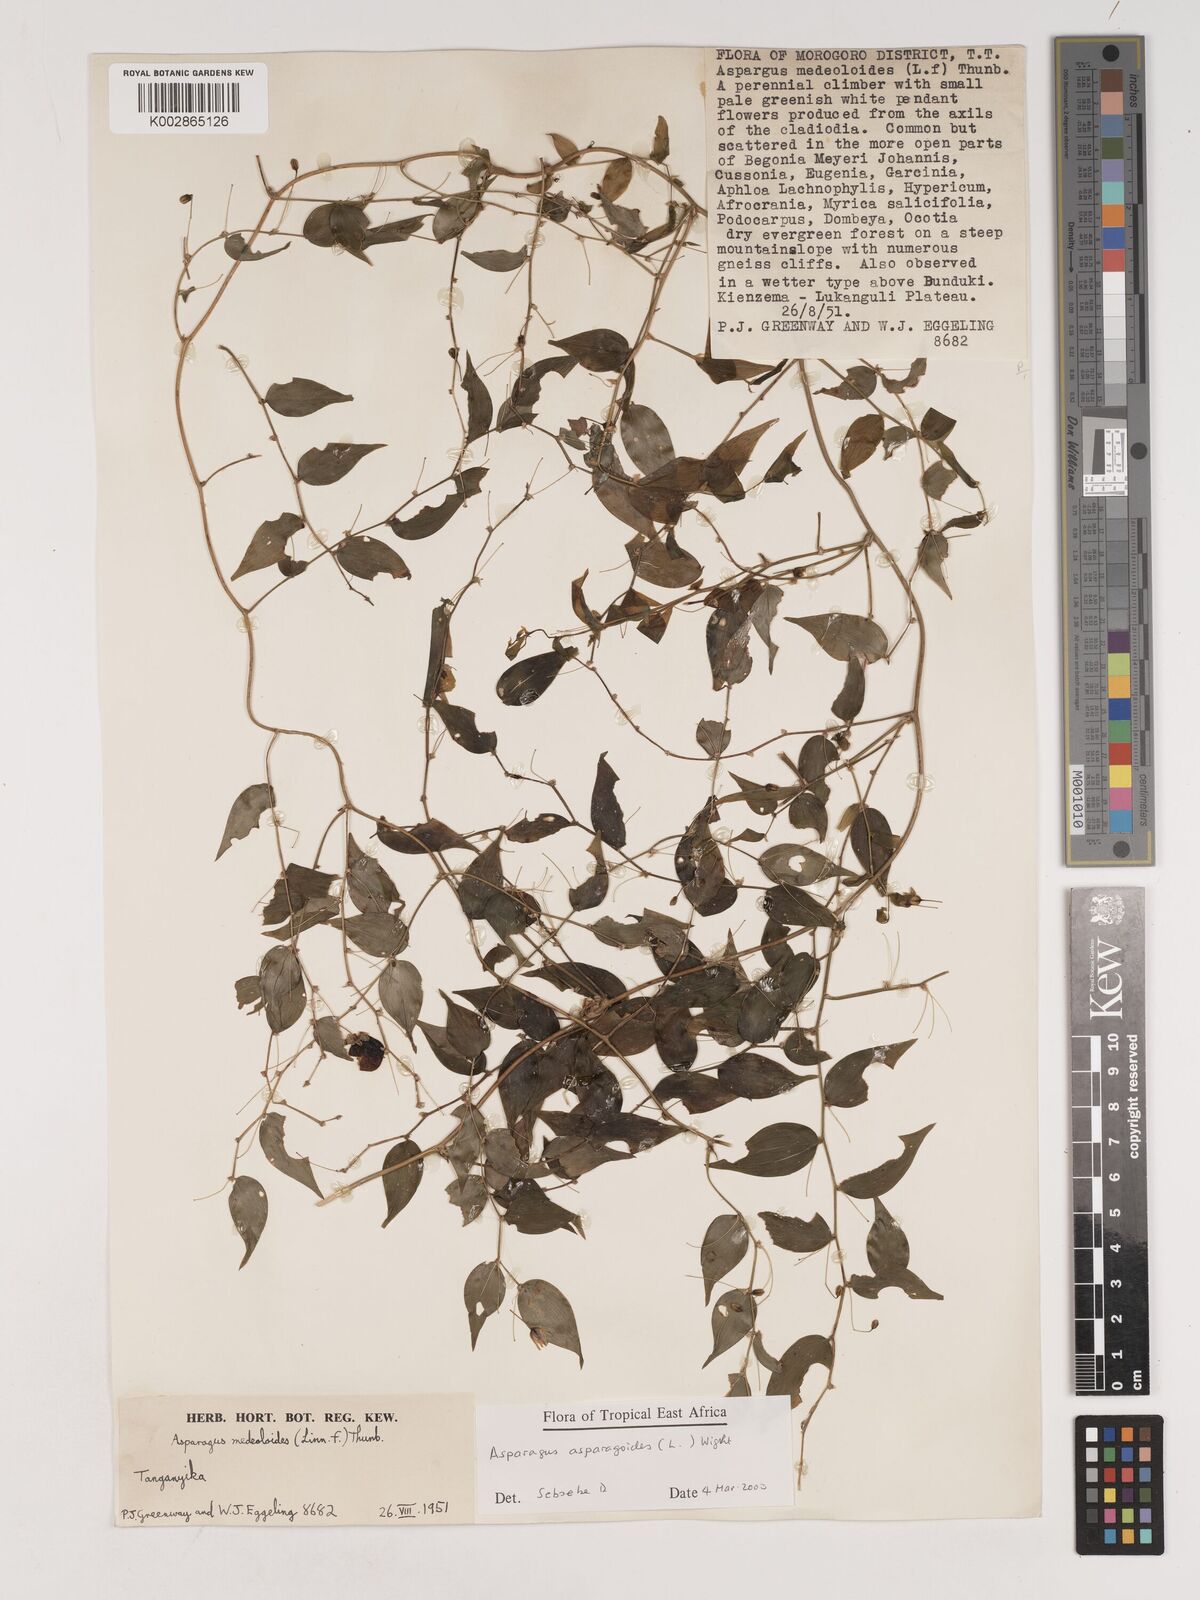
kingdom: Plantae
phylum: Tracheophyta
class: Liliopsida
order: Asparagales
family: Asparagaceae
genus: Asparagus
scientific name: Asparagus asparagoides
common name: African asparagus fern
